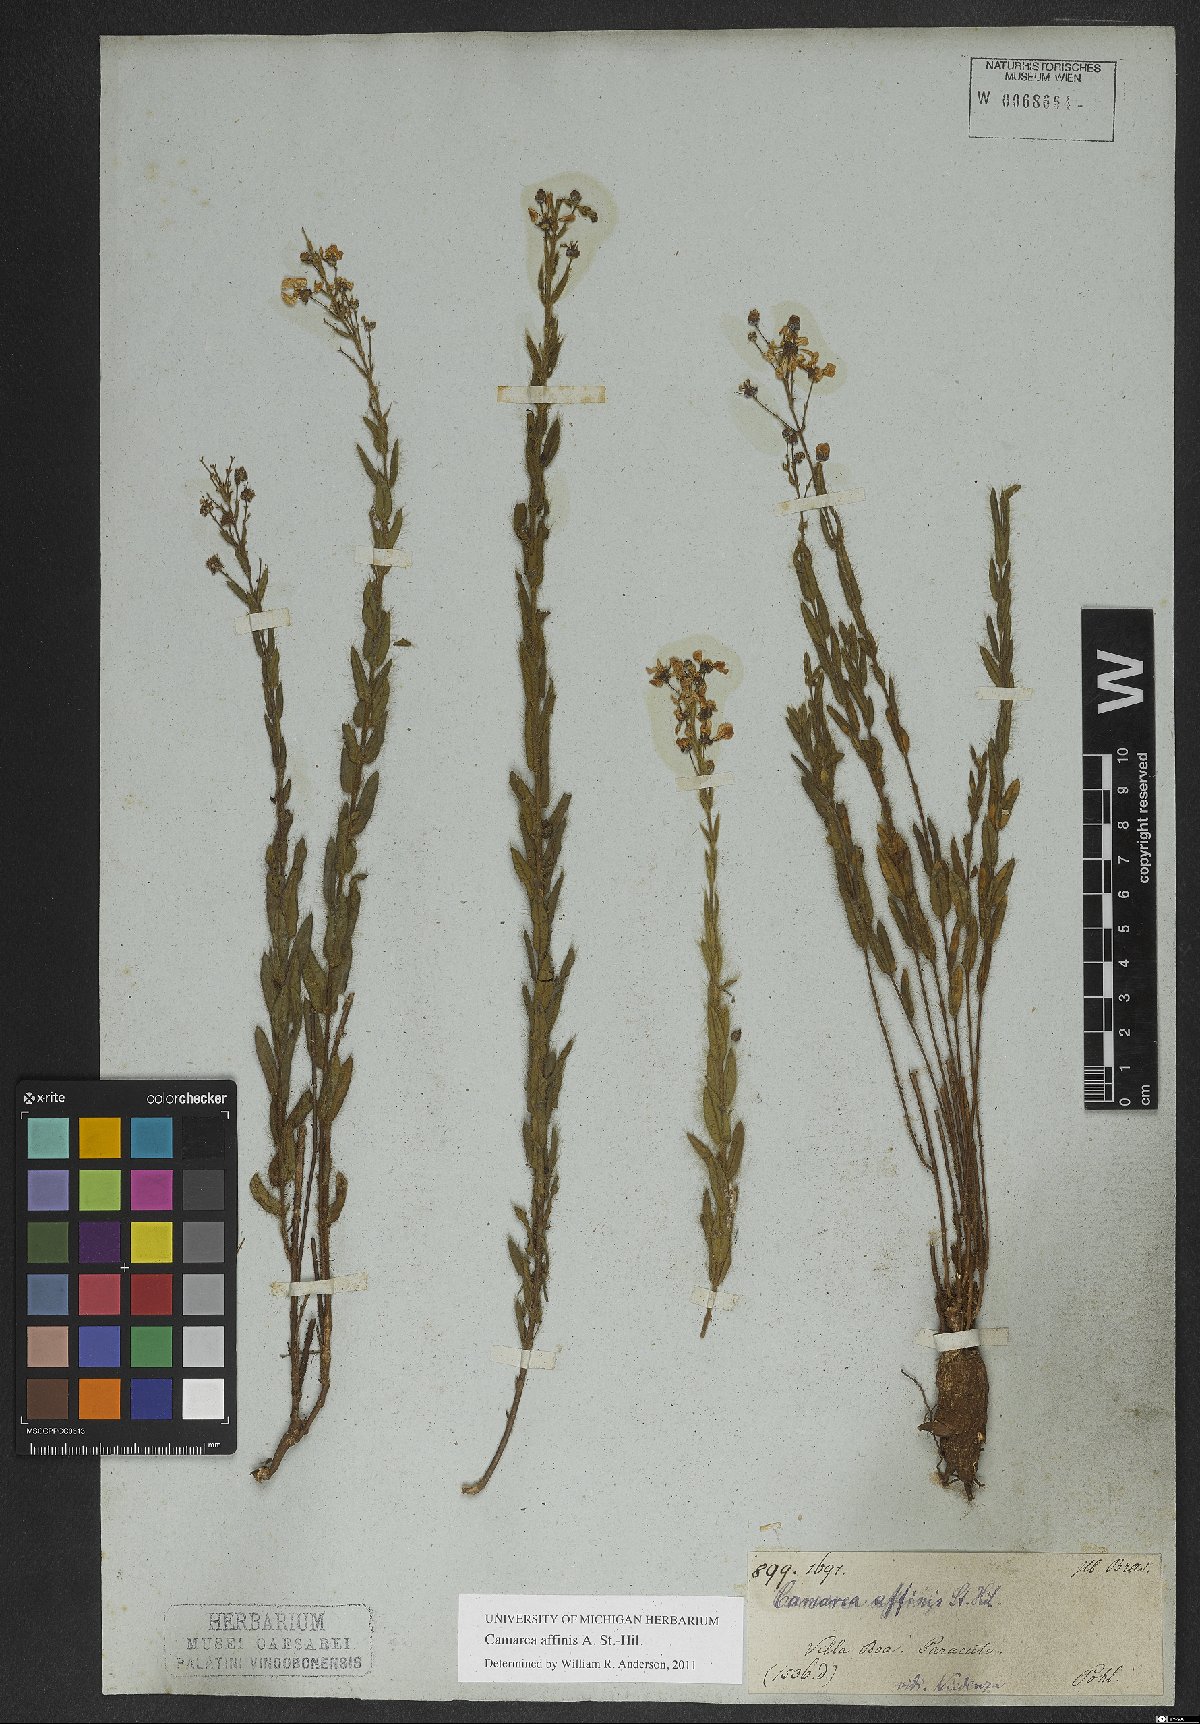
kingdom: Plantae
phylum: Tracheophyta
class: Magnoliopsida
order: Malpighiales
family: Malpighiaceae
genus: Camarea
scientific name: Camarea affinis
